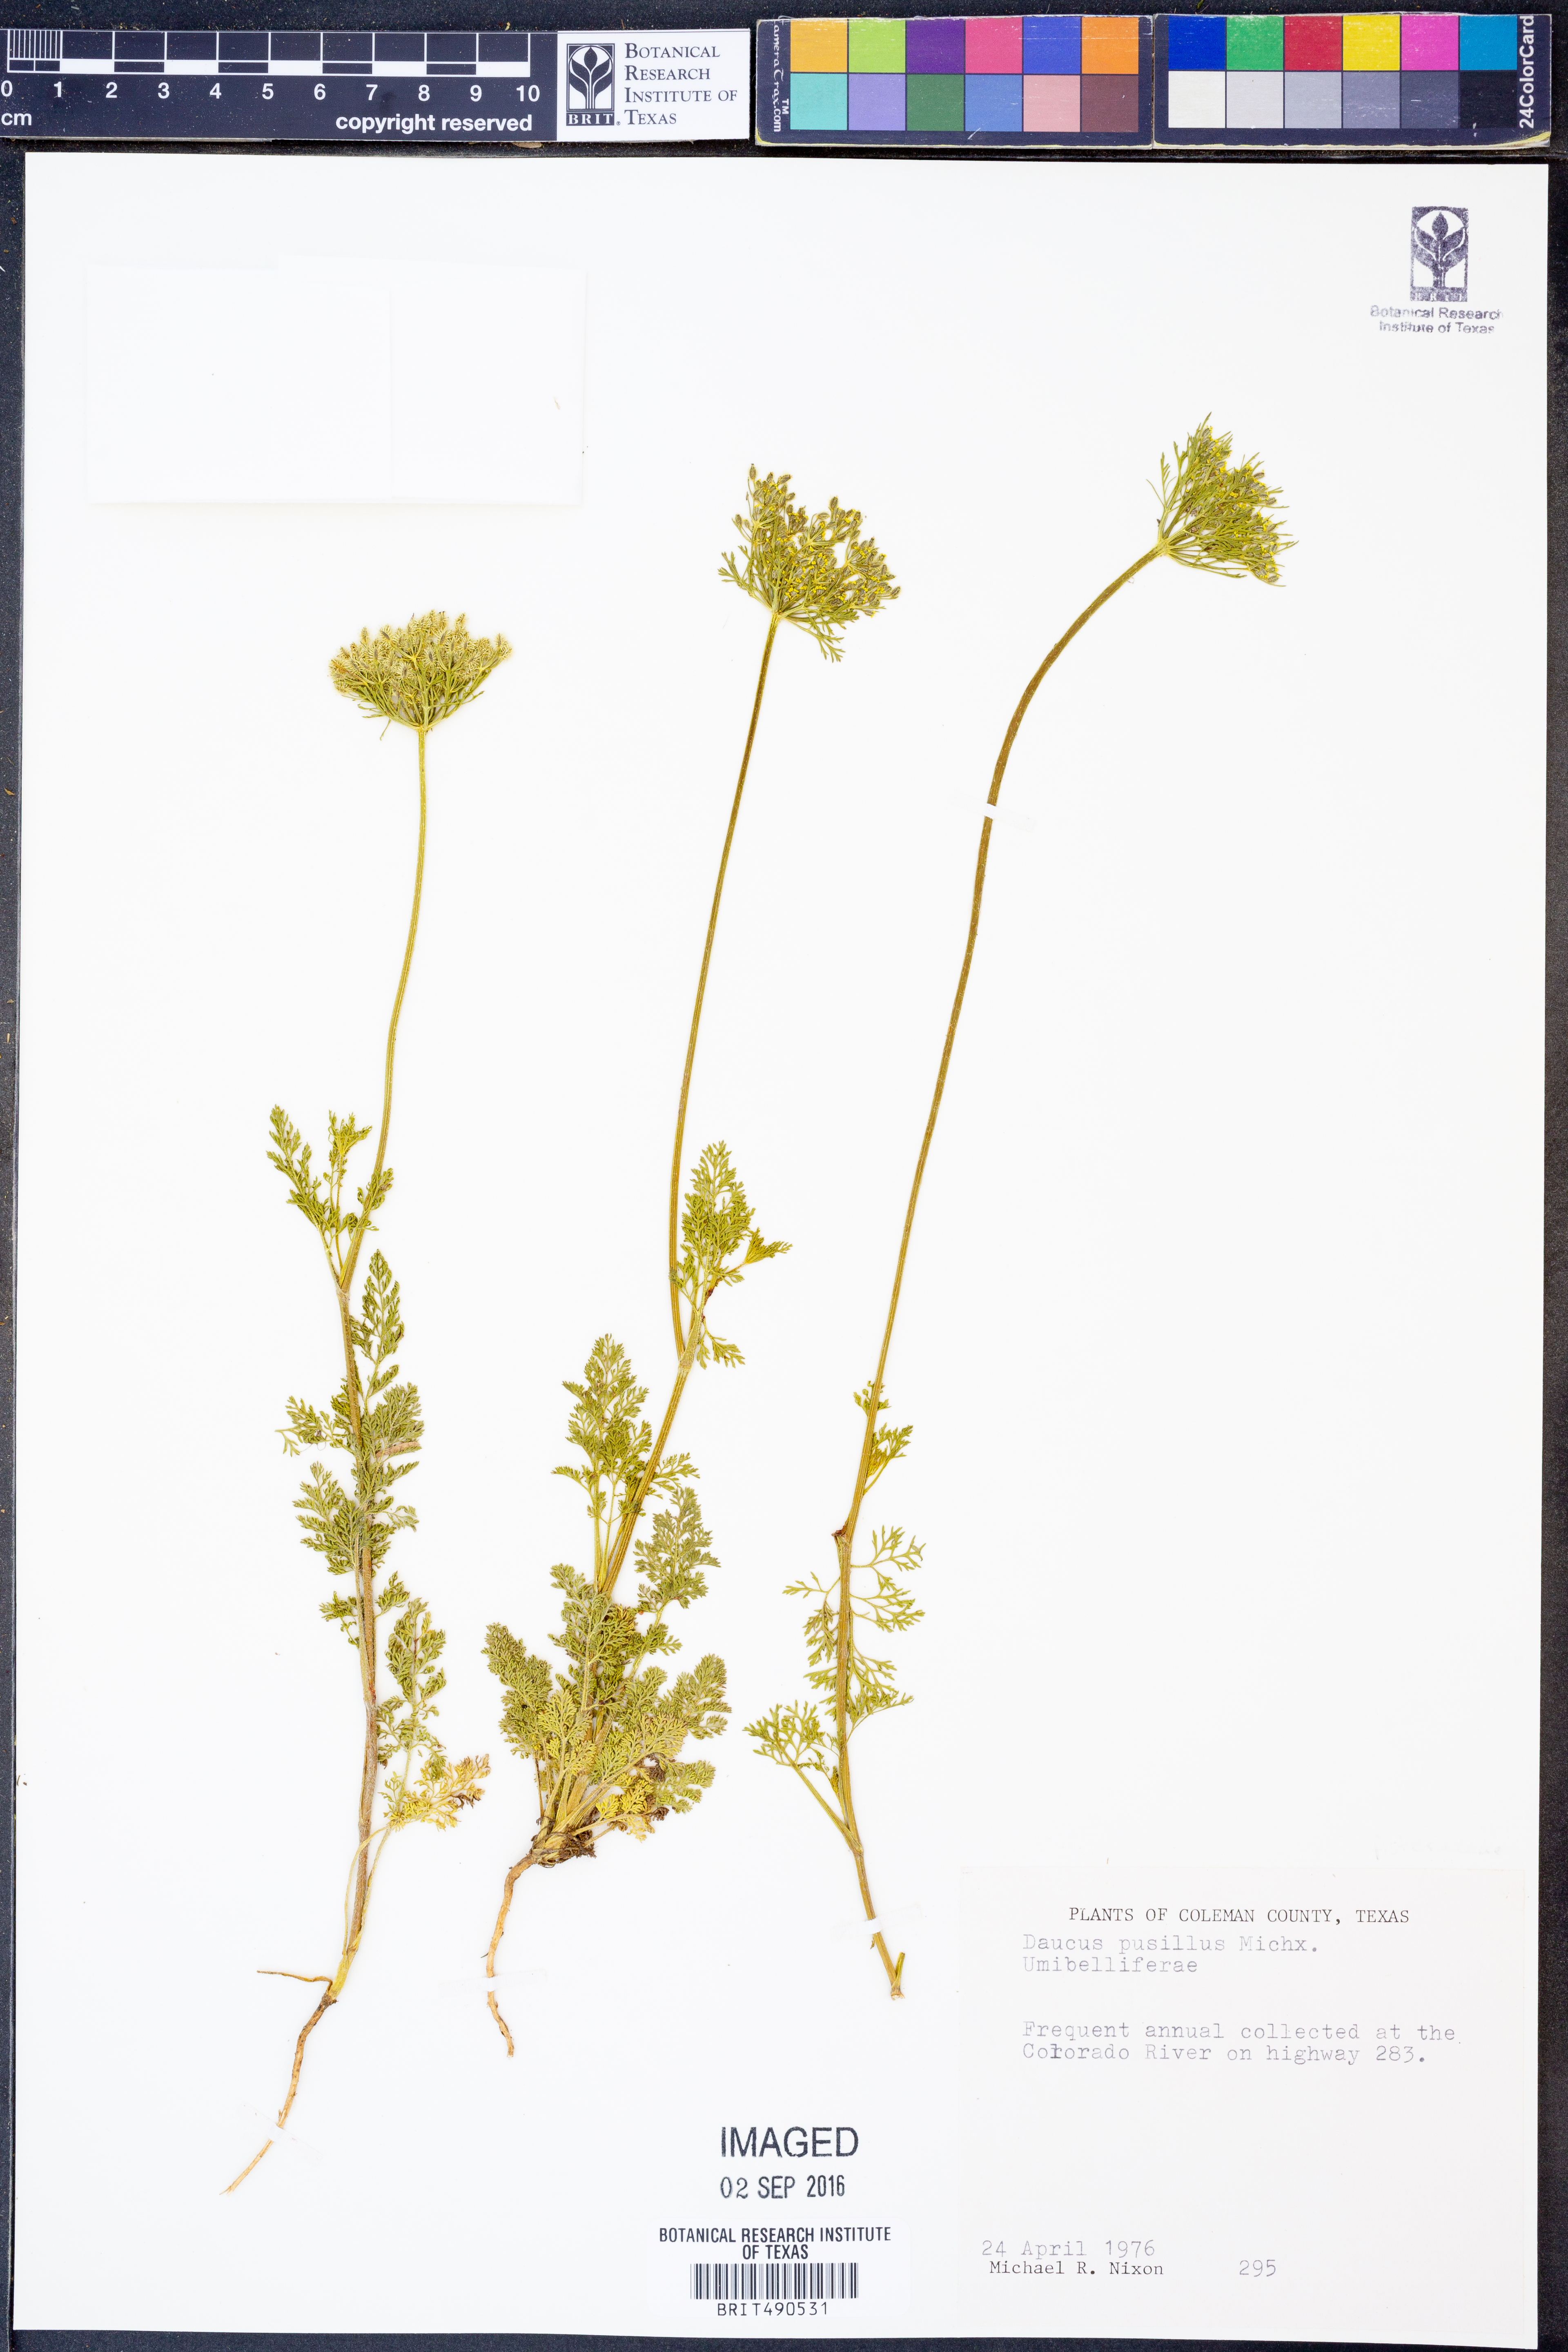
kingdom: Plantae
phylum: Tracheophyta
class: Magnoliopsida
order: Apiales
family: Apiaceae
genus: Daucus
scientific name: Daucus pusillus
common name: Southwest wild carrot
